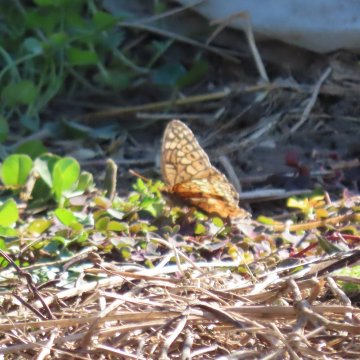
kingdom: Animalia
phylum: Arthropoda
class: Insecta
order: Lepidoptera
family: Nymphalidae
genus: Euptoieta
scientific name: Euptoieta claudia
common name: Variegated Fritillary
